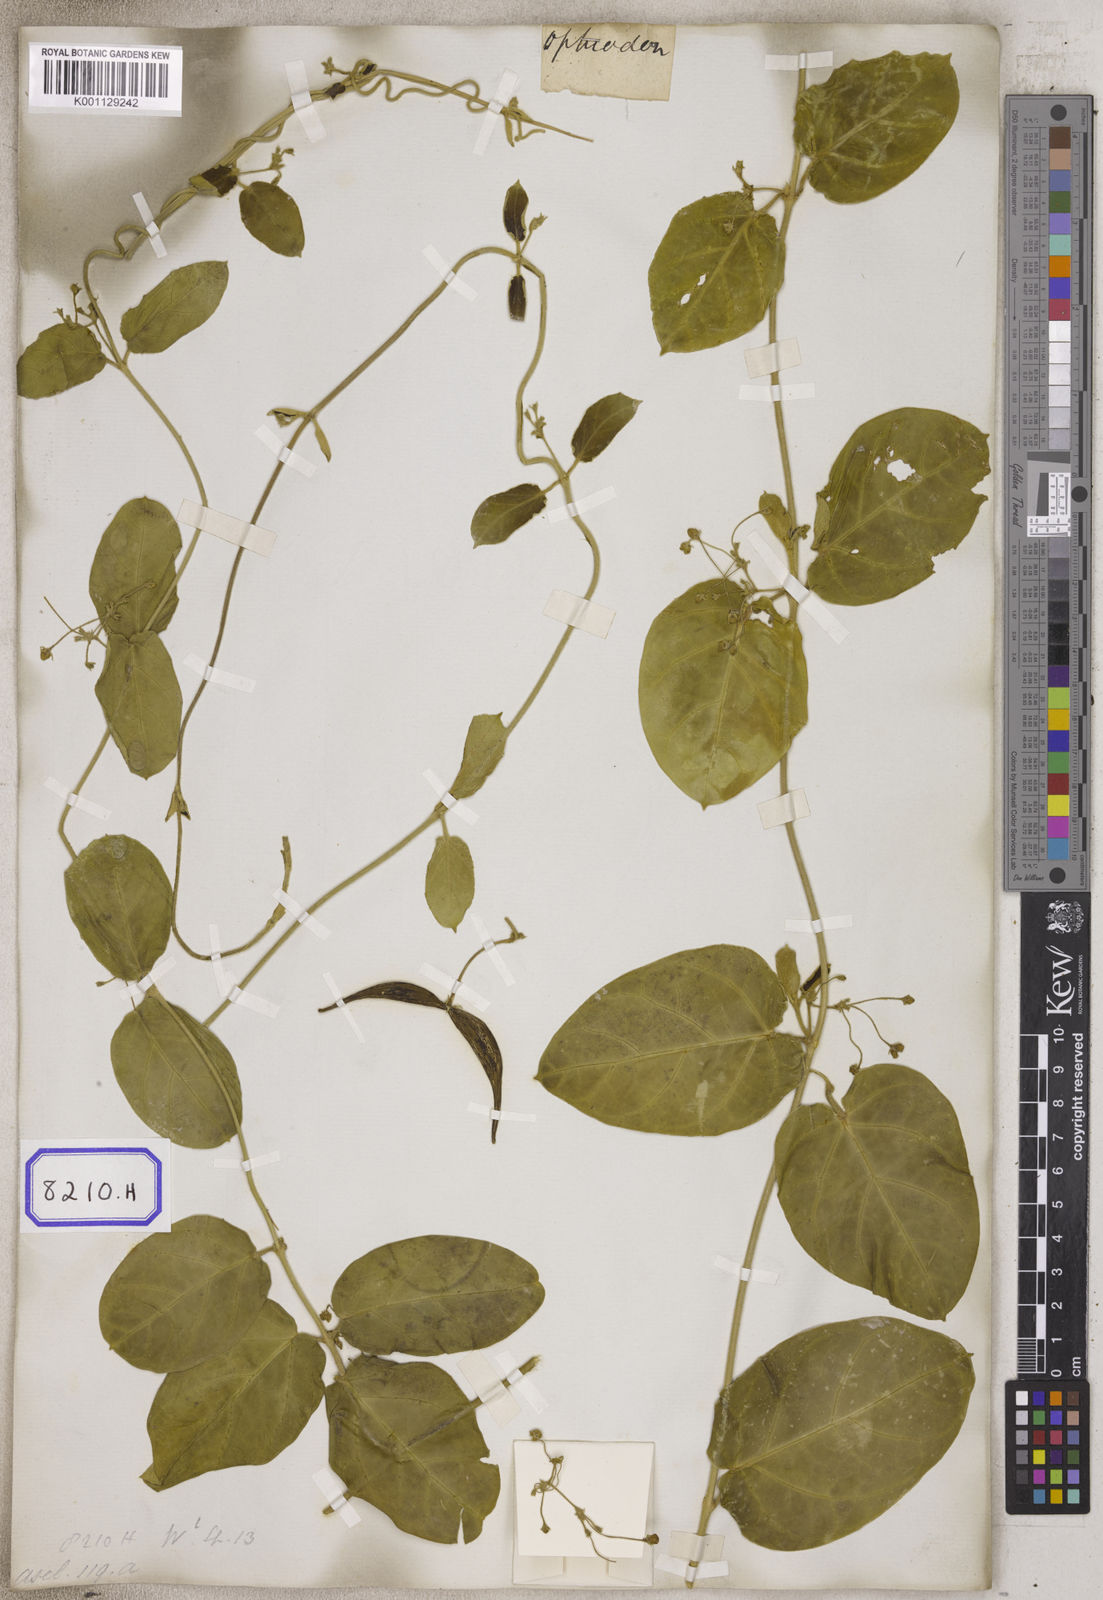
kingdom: Plantae
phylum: Tracheophyta
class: Magnoliopsida
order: Gentianales
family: Apocynaceae
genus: Vincetoxicum
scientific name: Vincetoxicum indicum
